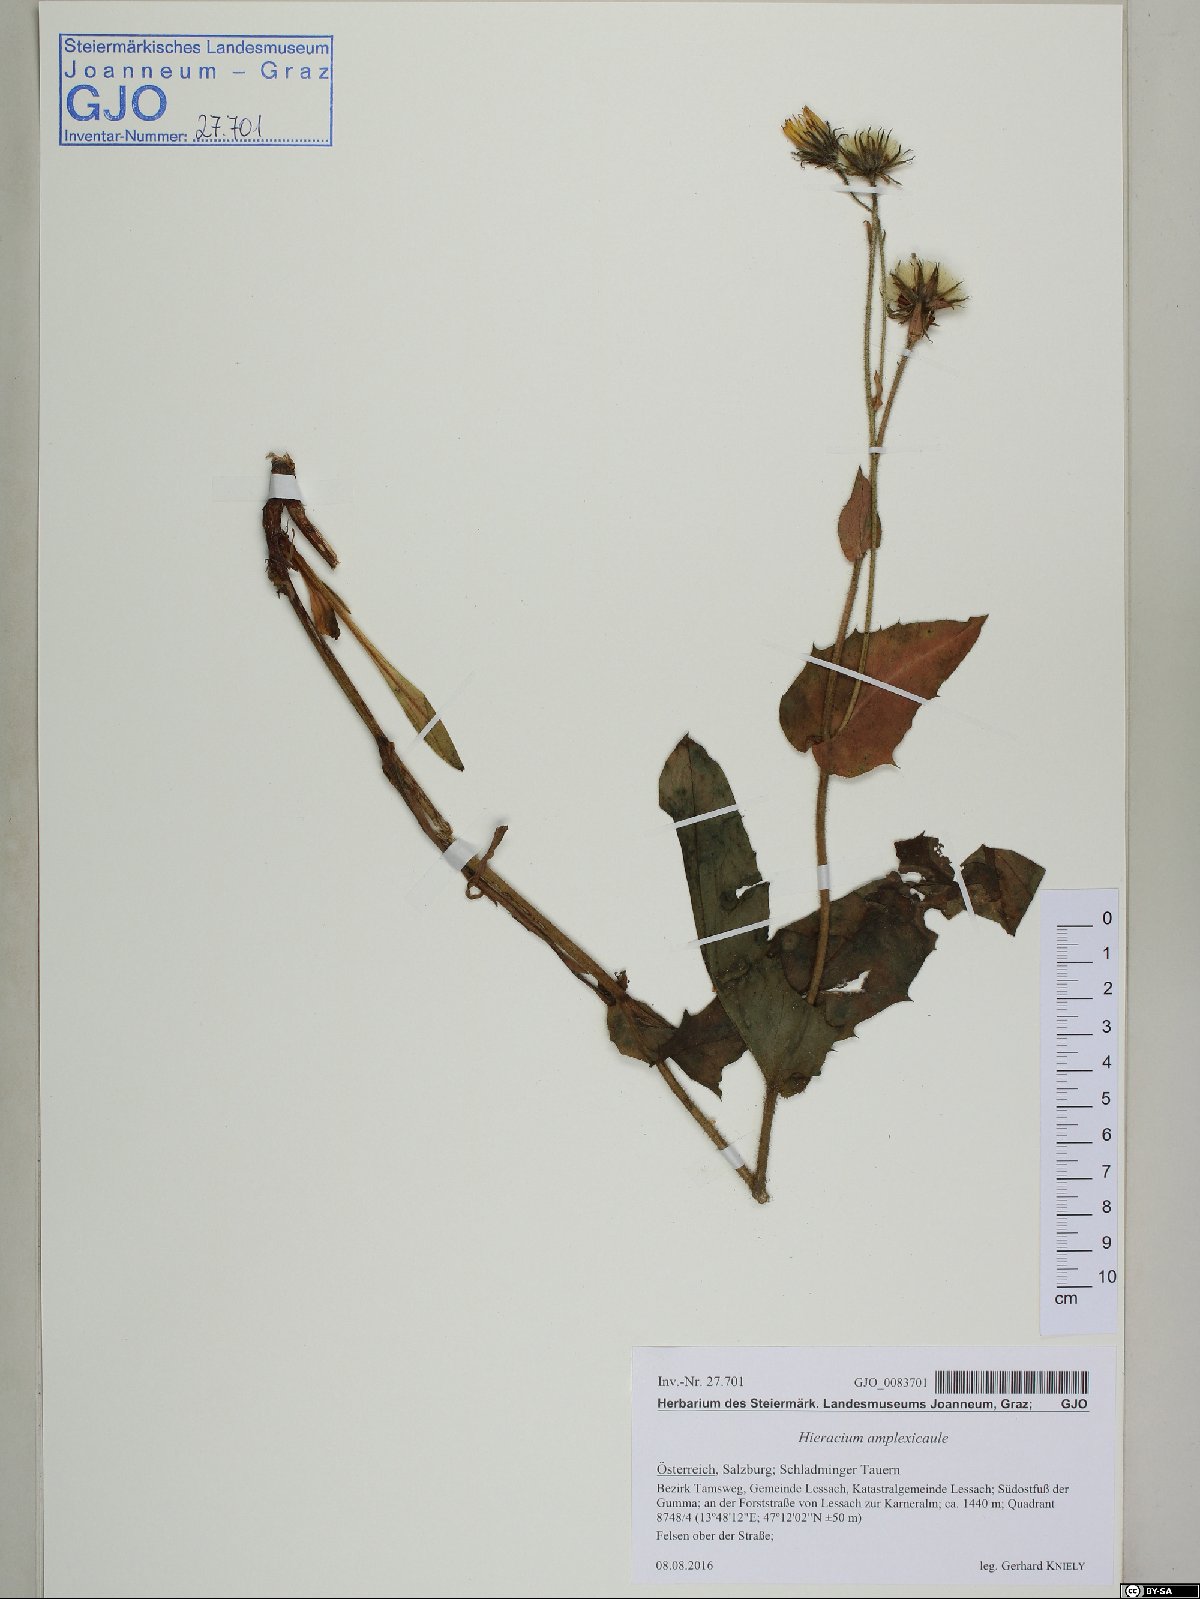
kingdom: Plantae
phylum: Tracheophyta
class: Magnoliopsida
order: Asterales
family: Asteraceae
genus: Hieracium
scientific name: Hieracium amplexicaule
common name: Sticky hawkweed
